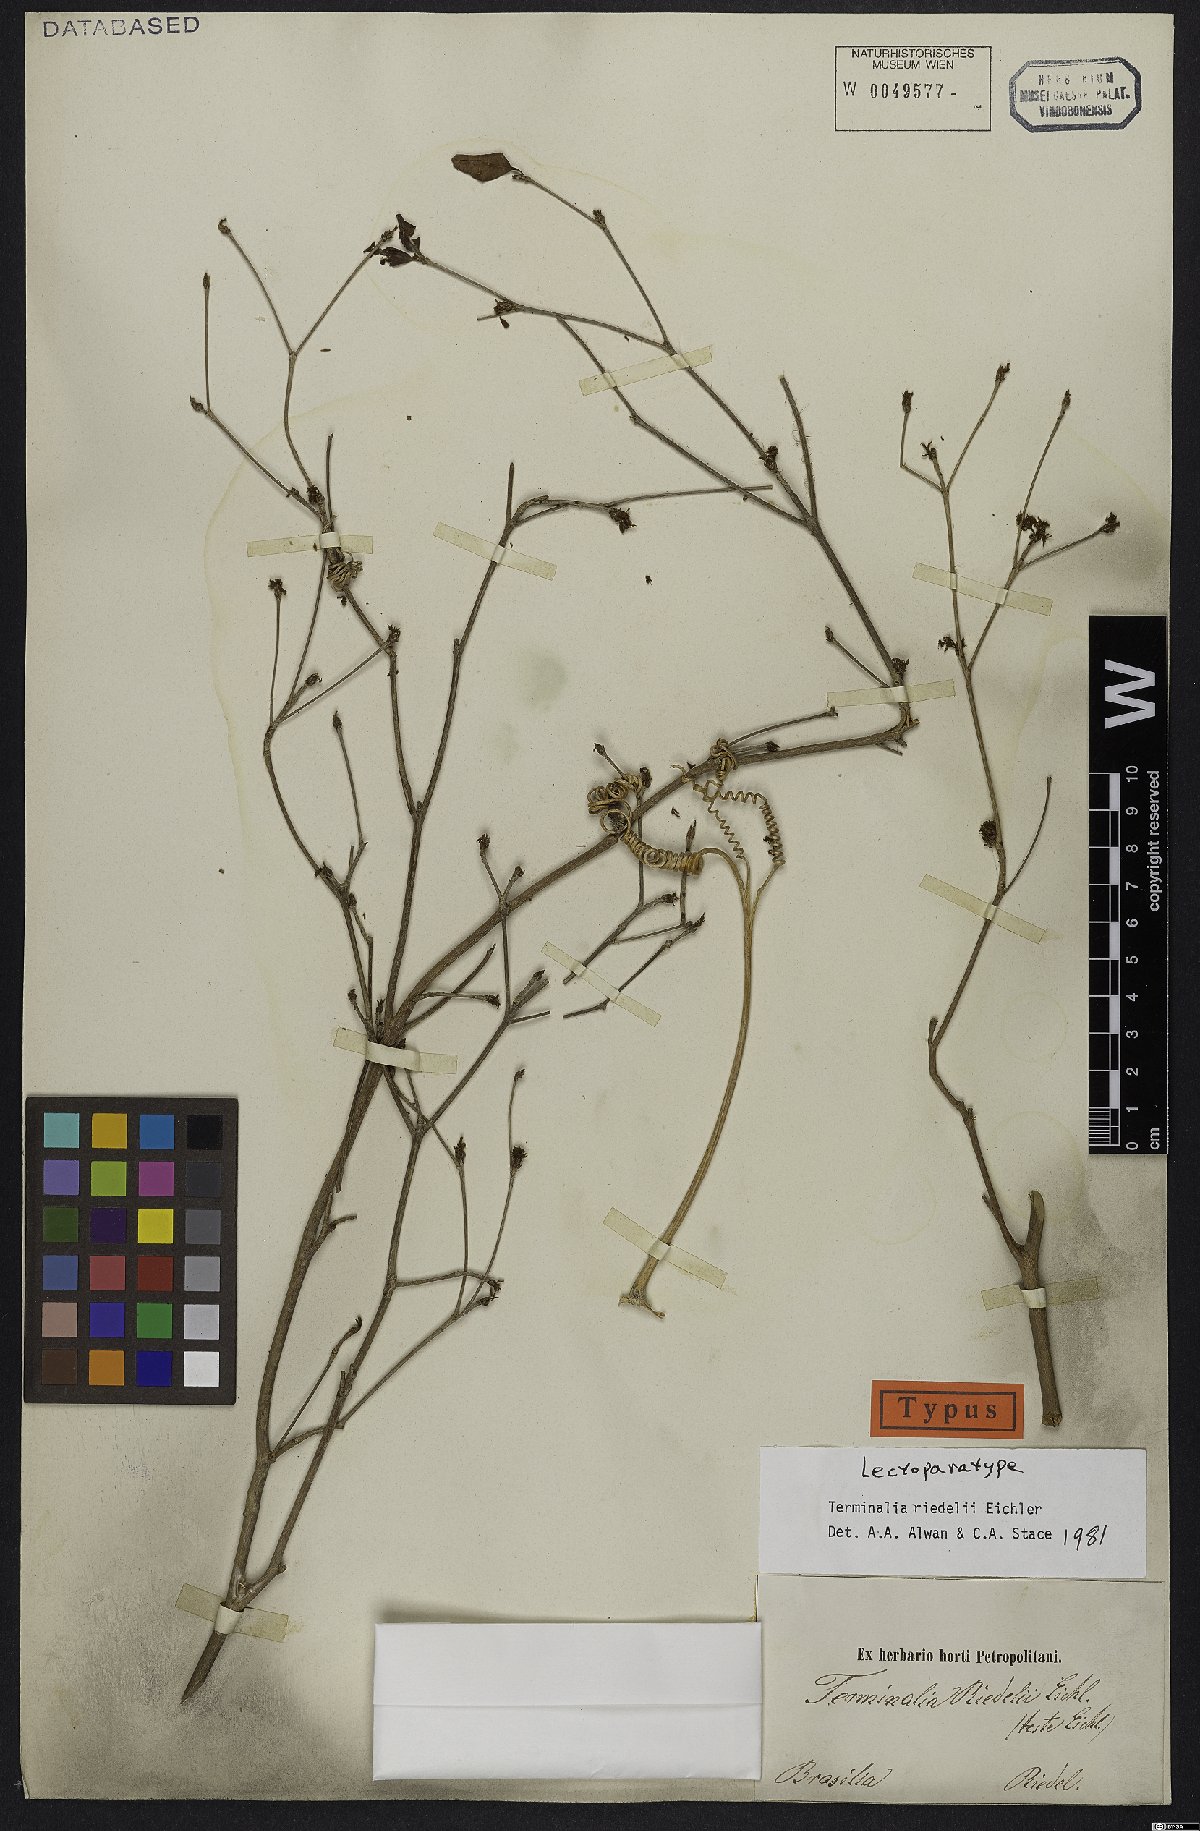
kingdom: Plantae
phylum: Tracheophyta
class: Magnoliopsida
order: Myrtales
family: Combretaceae
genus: Terminalia
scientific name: Terminalia riedelii
